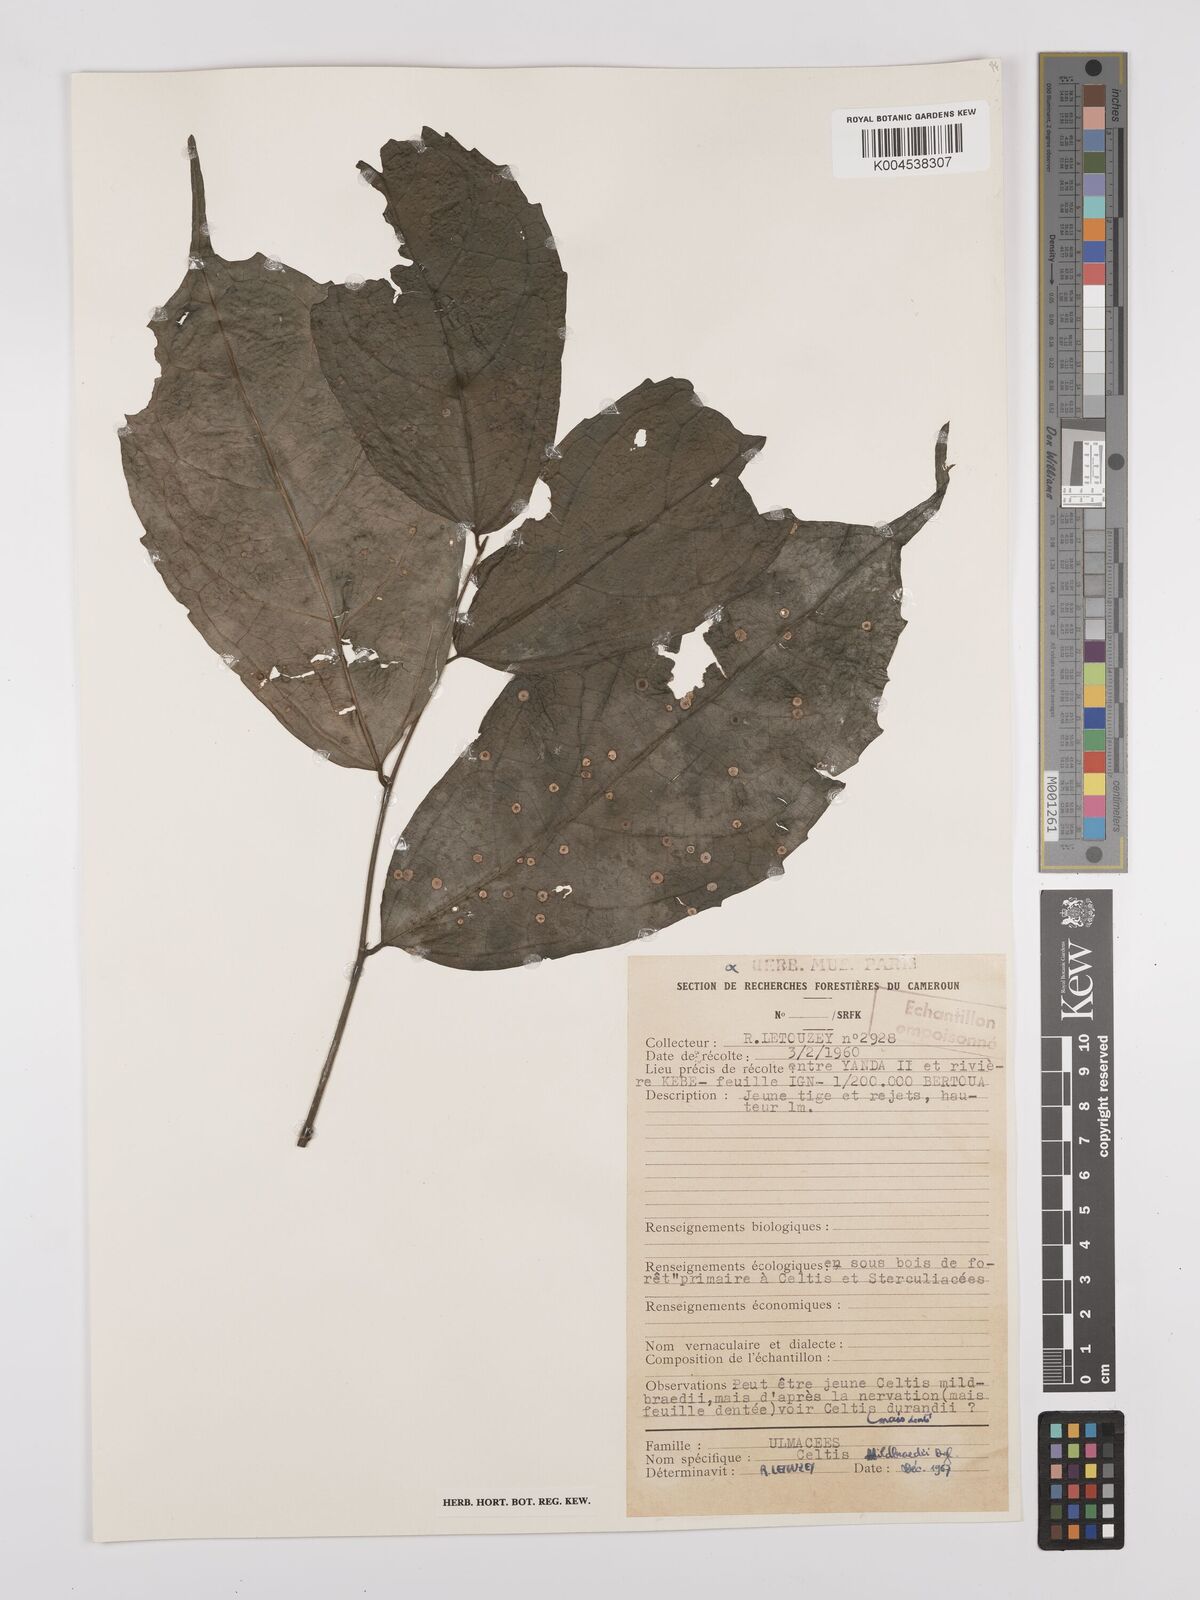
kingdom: Plantae
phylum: Tracheophyta
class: Magnoliopsida
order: Rosales
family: Cannabaceae
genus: Celtis
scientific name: Celtis mildbraedii
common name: Red-fruited stinkwood
